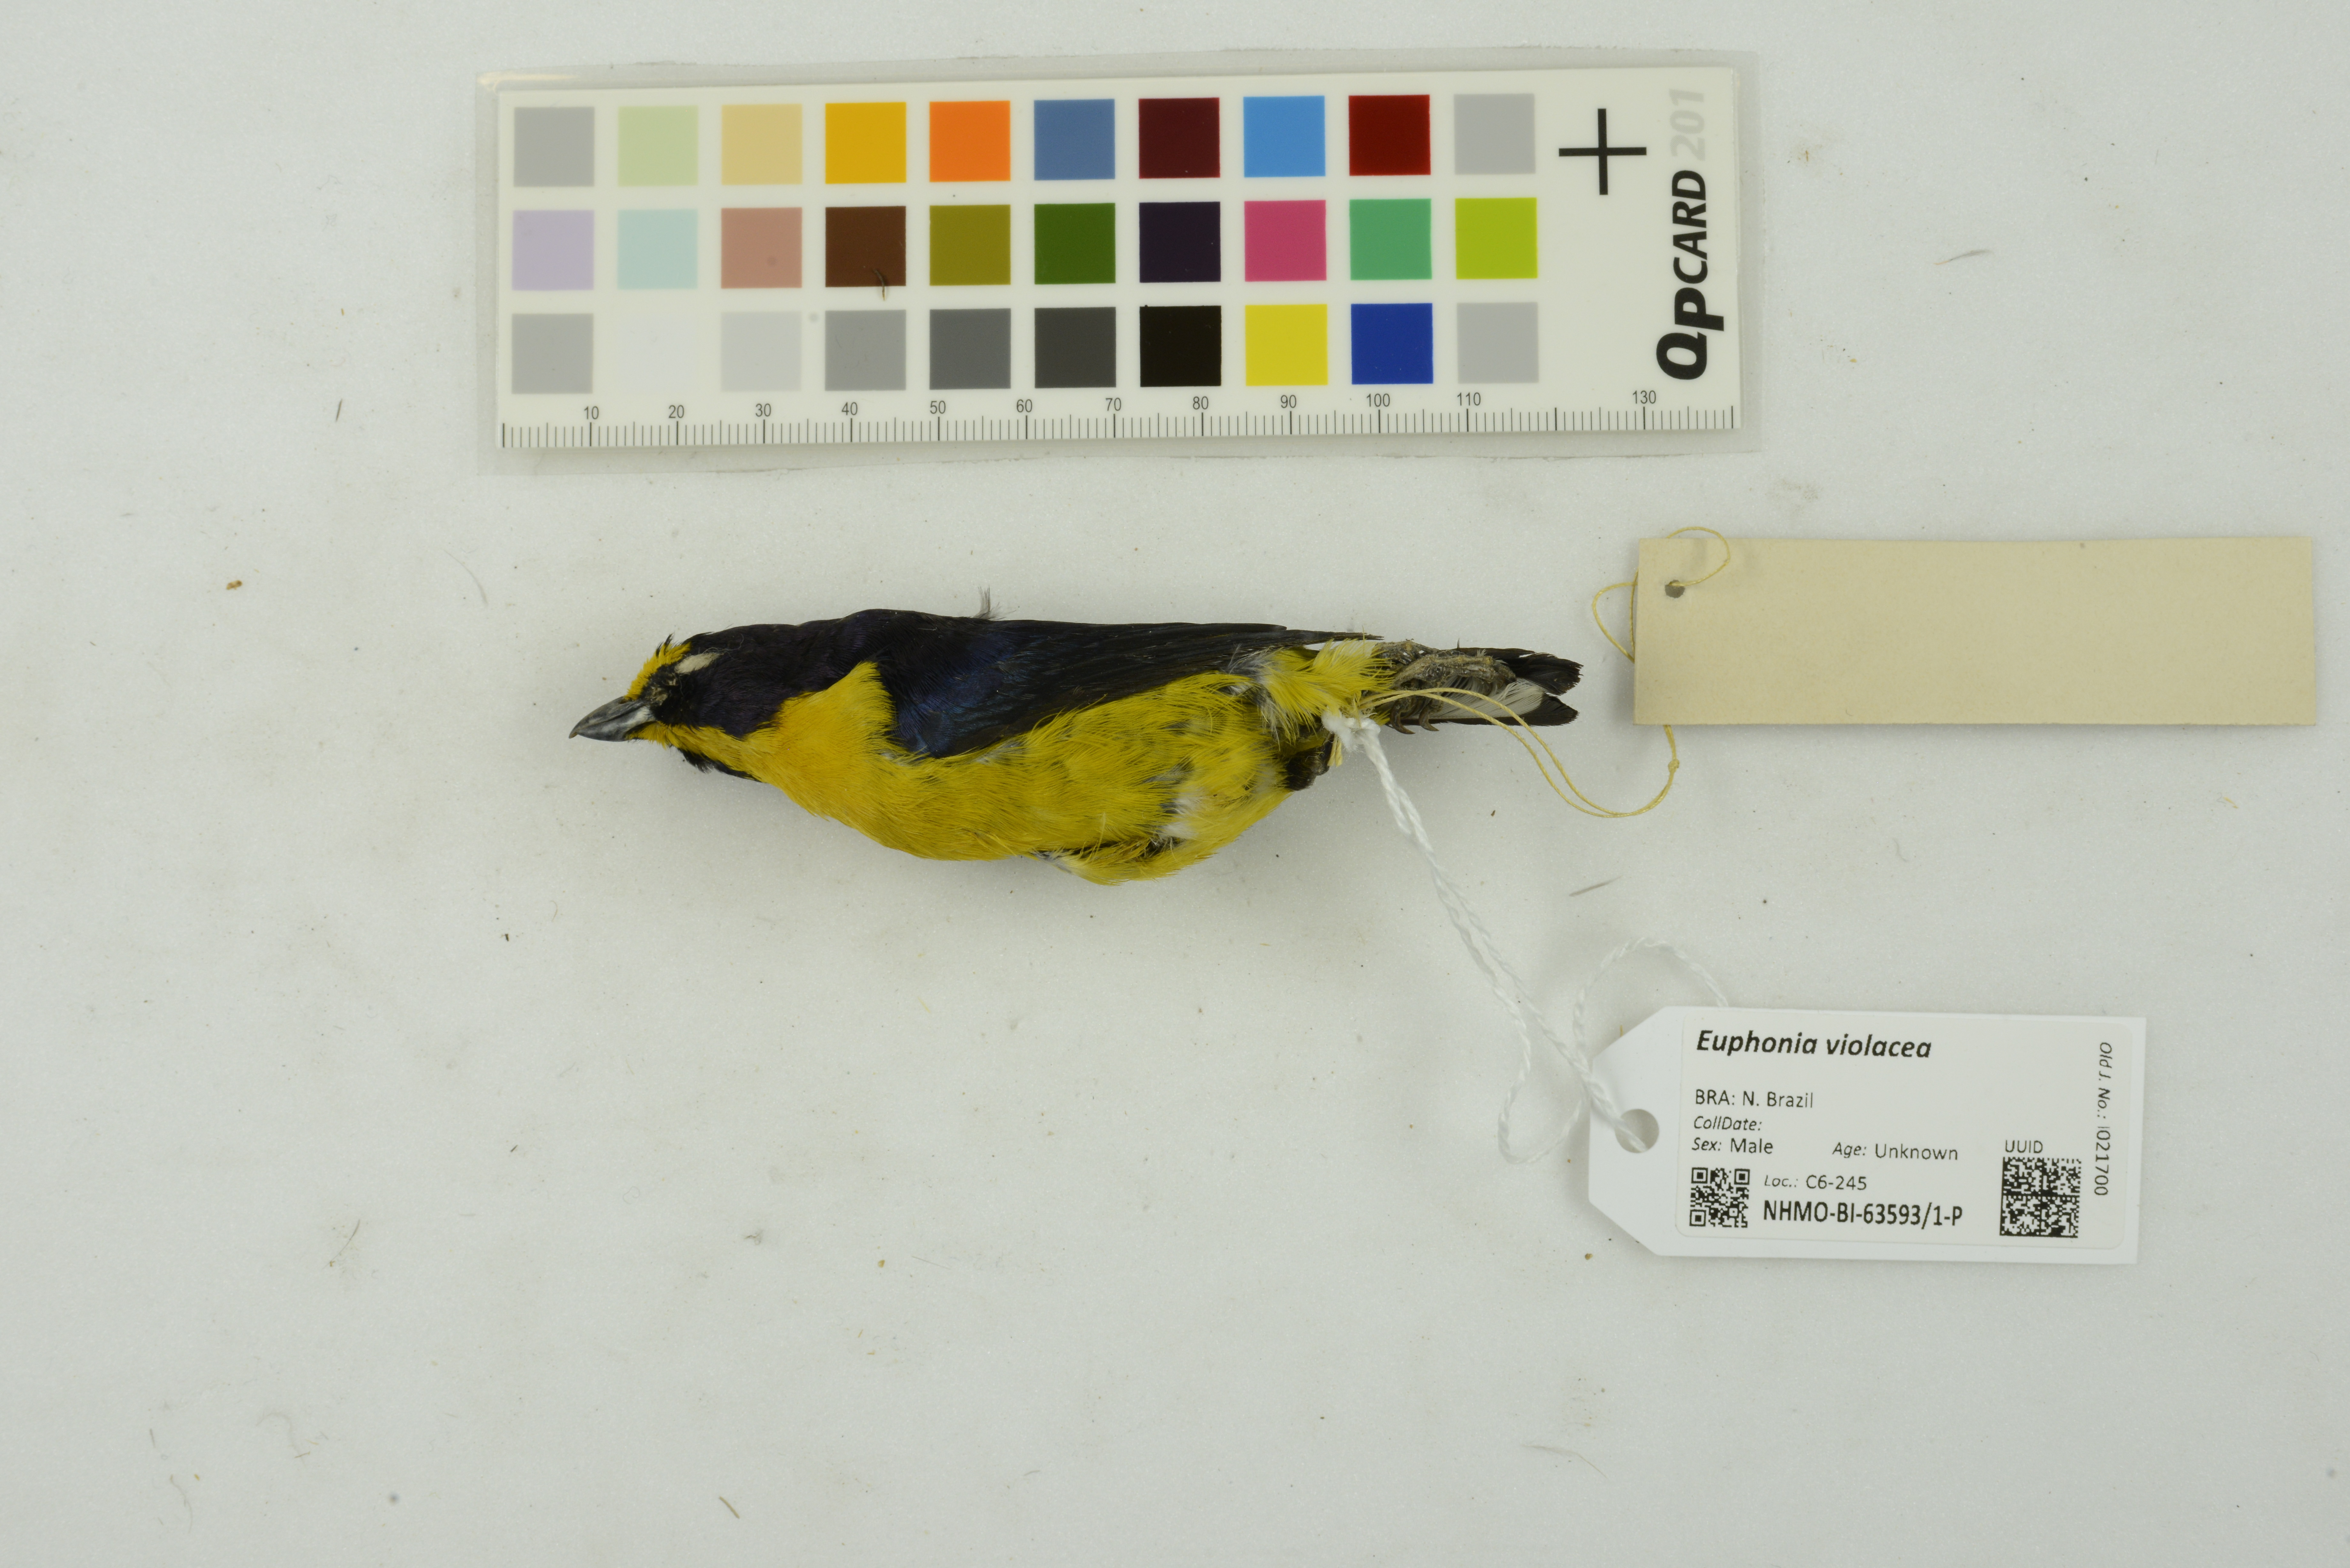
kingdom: Animalia
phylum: Chordata
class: Aves
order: Passeriformes
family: Fringillidae
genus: Euphonia
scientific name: Euphonia violacea
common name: Violaceous euphonia
